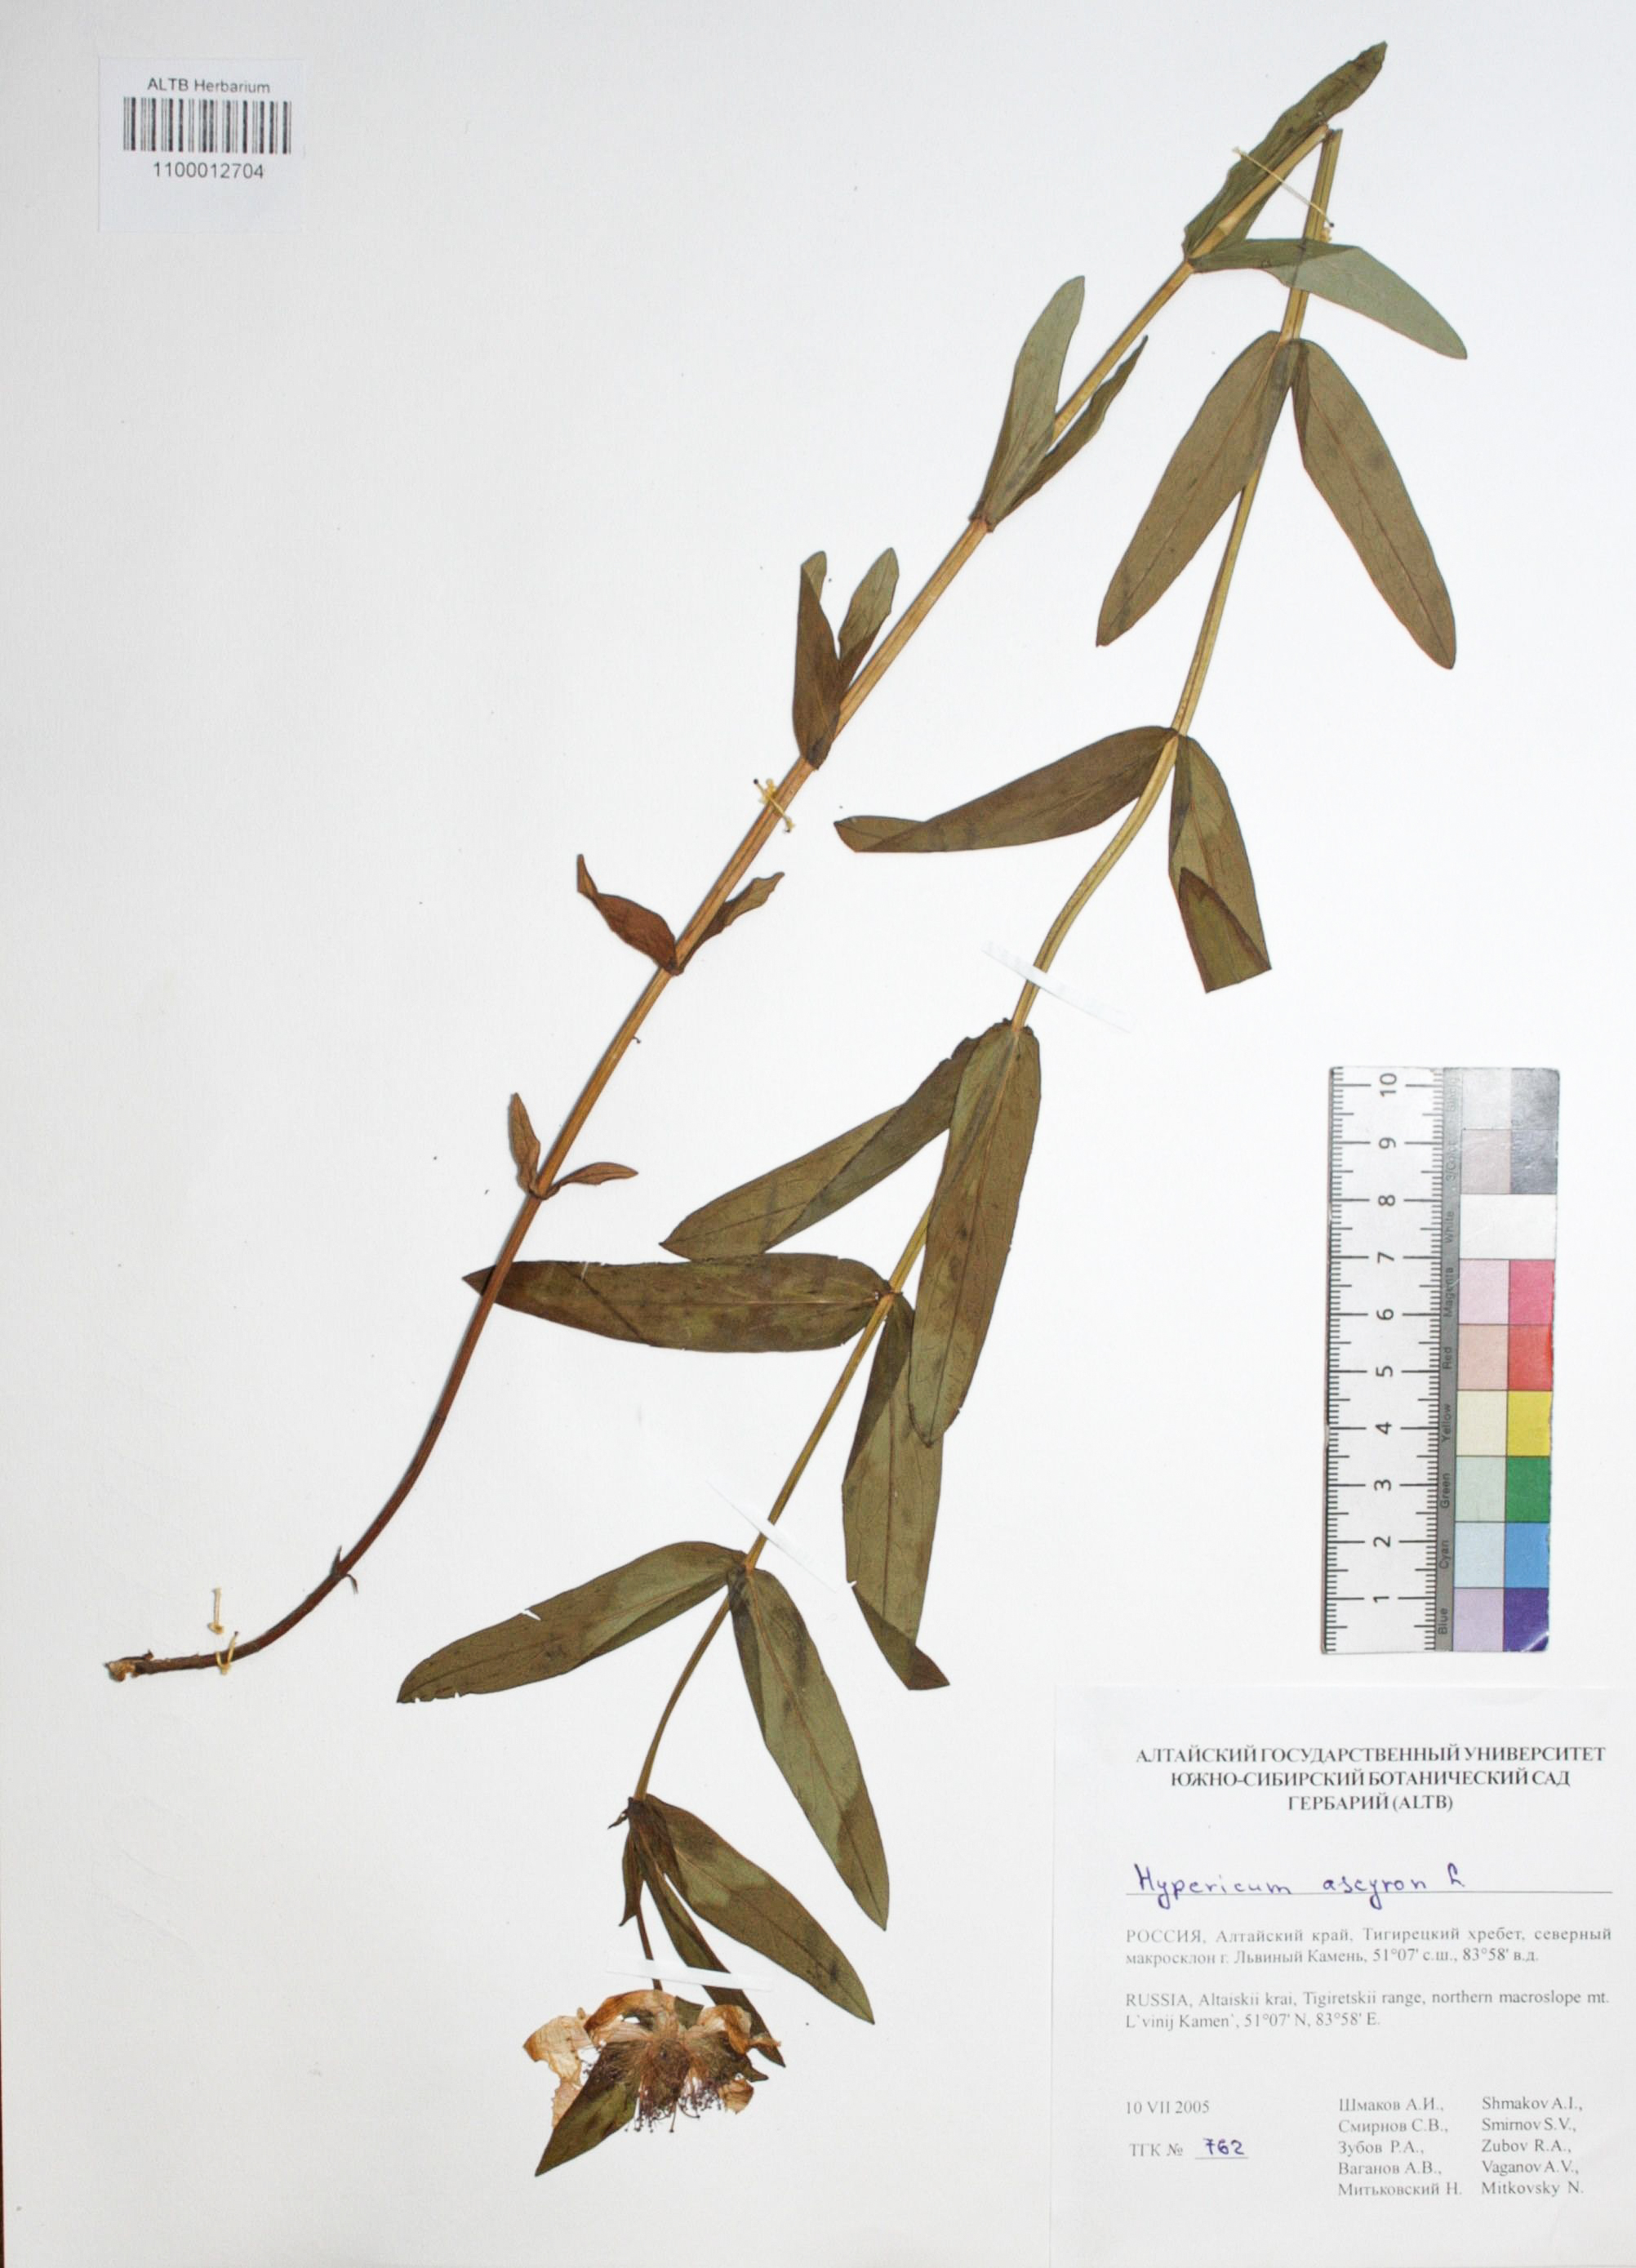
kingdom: Plantae
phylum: Tracheophyta
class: Magnoliopsida
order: Malpighiales
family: Hypericaceae
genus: Hypericum
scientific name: Hypericum ascyron
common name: Giant st. john's-wort
